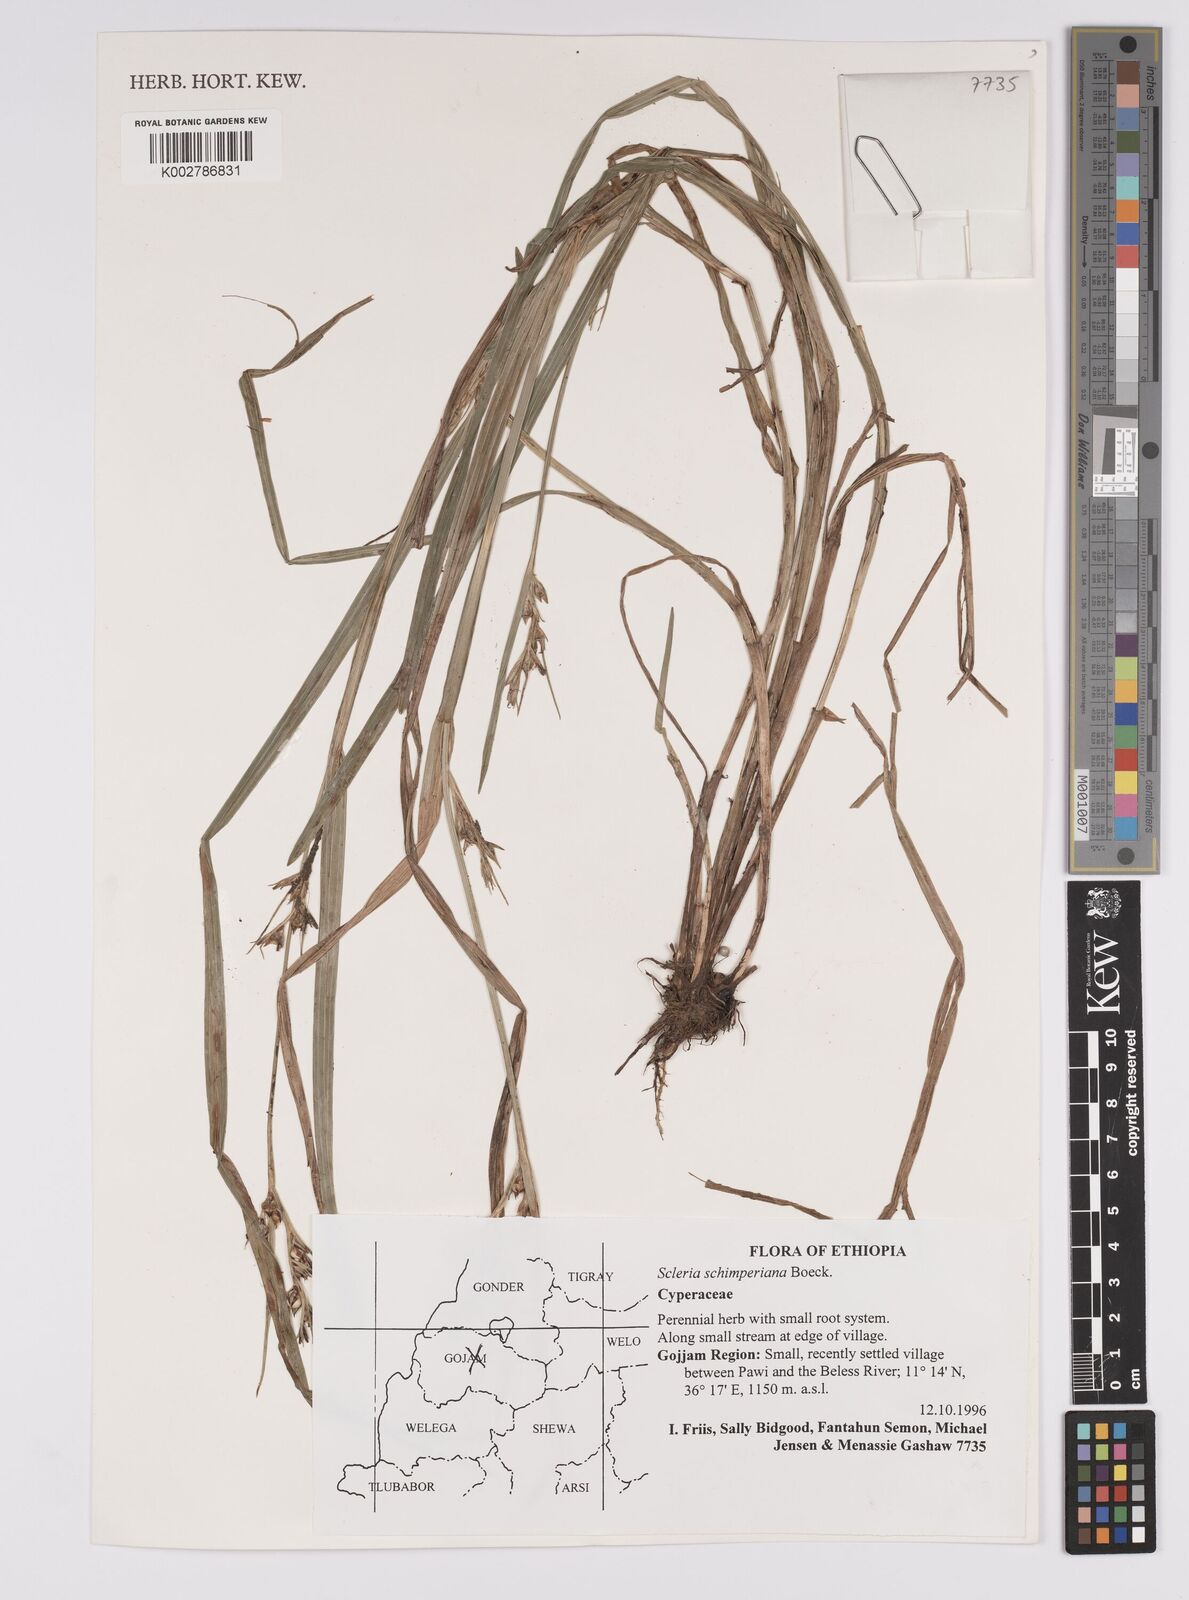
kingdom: Plantae
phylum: Tracheophyta
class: Liliopsida
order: Poales
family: Cyperaceae
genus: Scleria
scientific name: Scleria schimperiana
